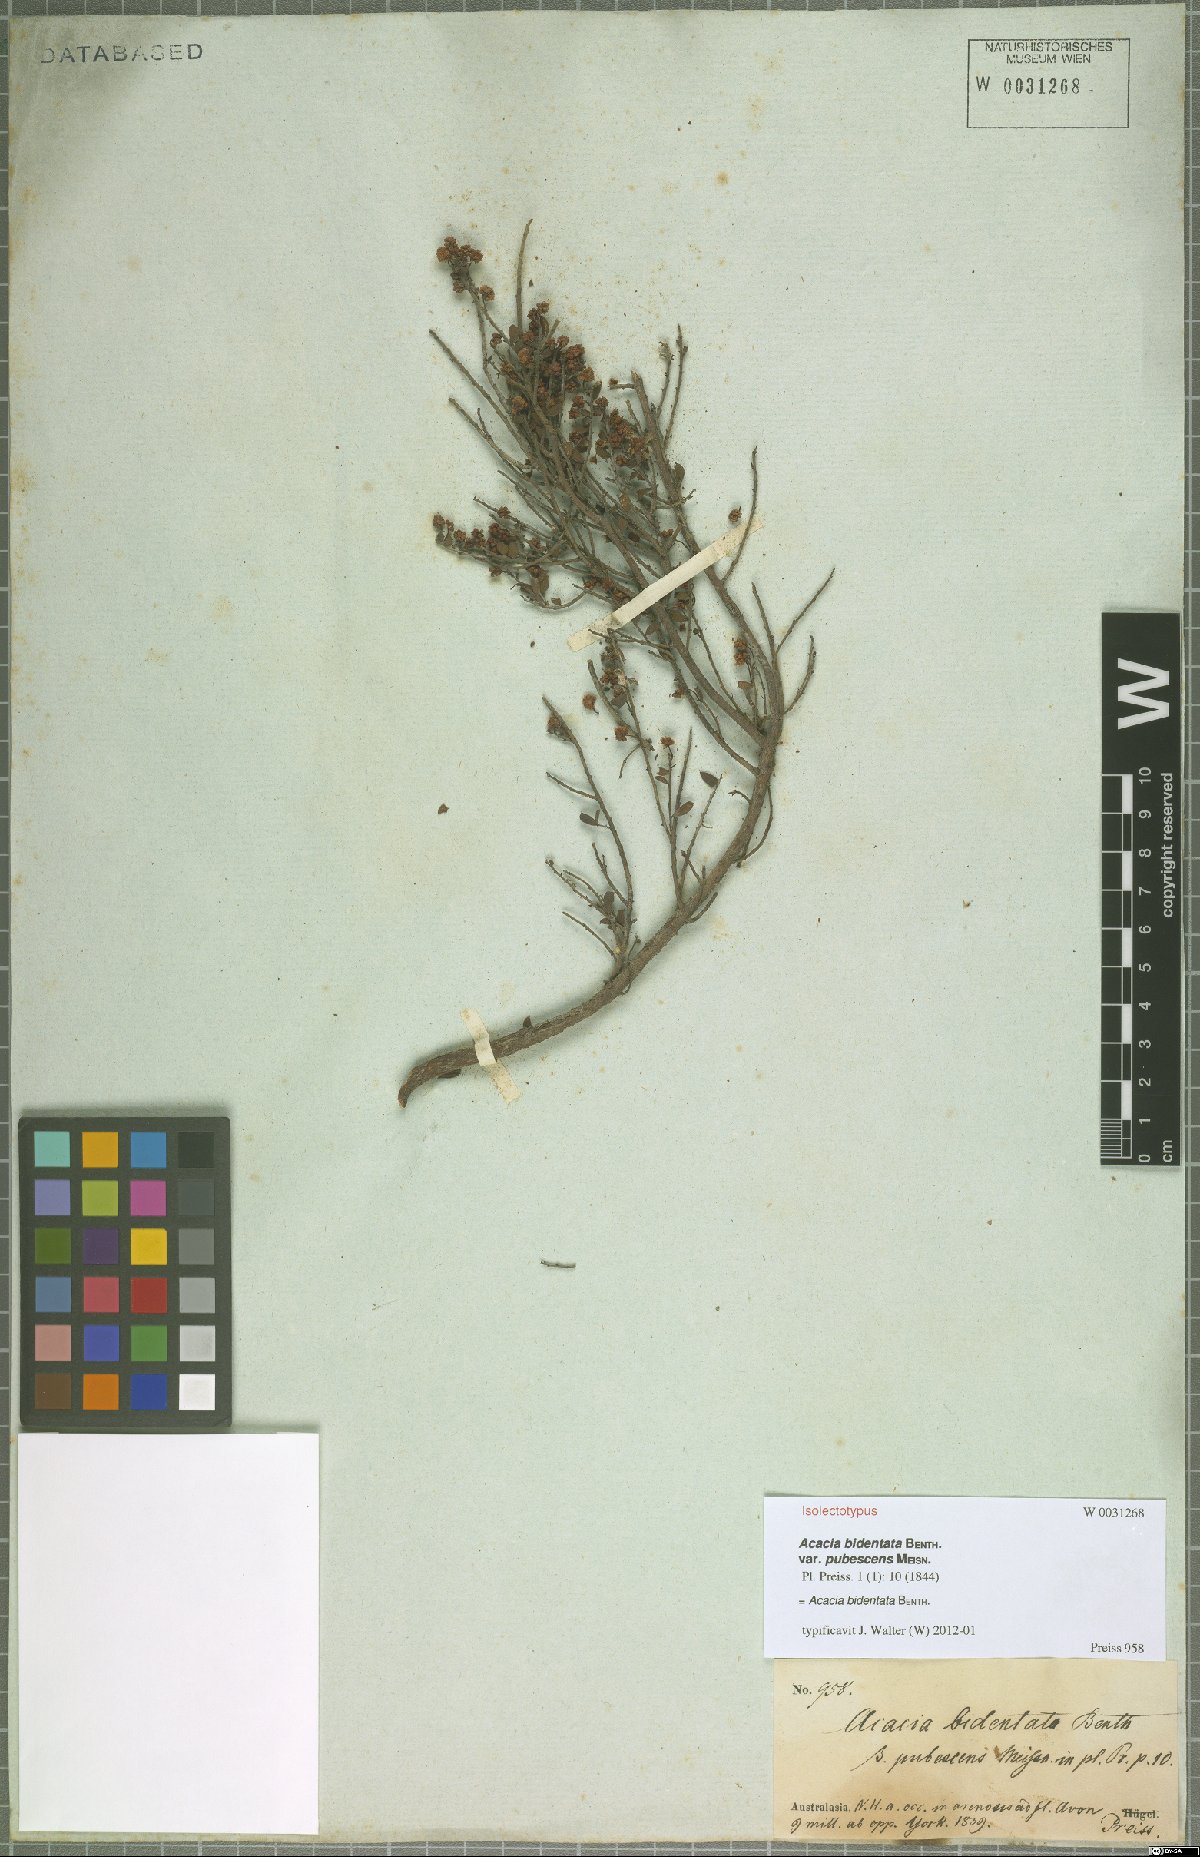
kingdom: Plantae
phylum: Tracheophyta
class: Magnoliopsida
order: Fabales
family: Fabaceae
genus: Acacia
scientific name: Acacia bidentata
